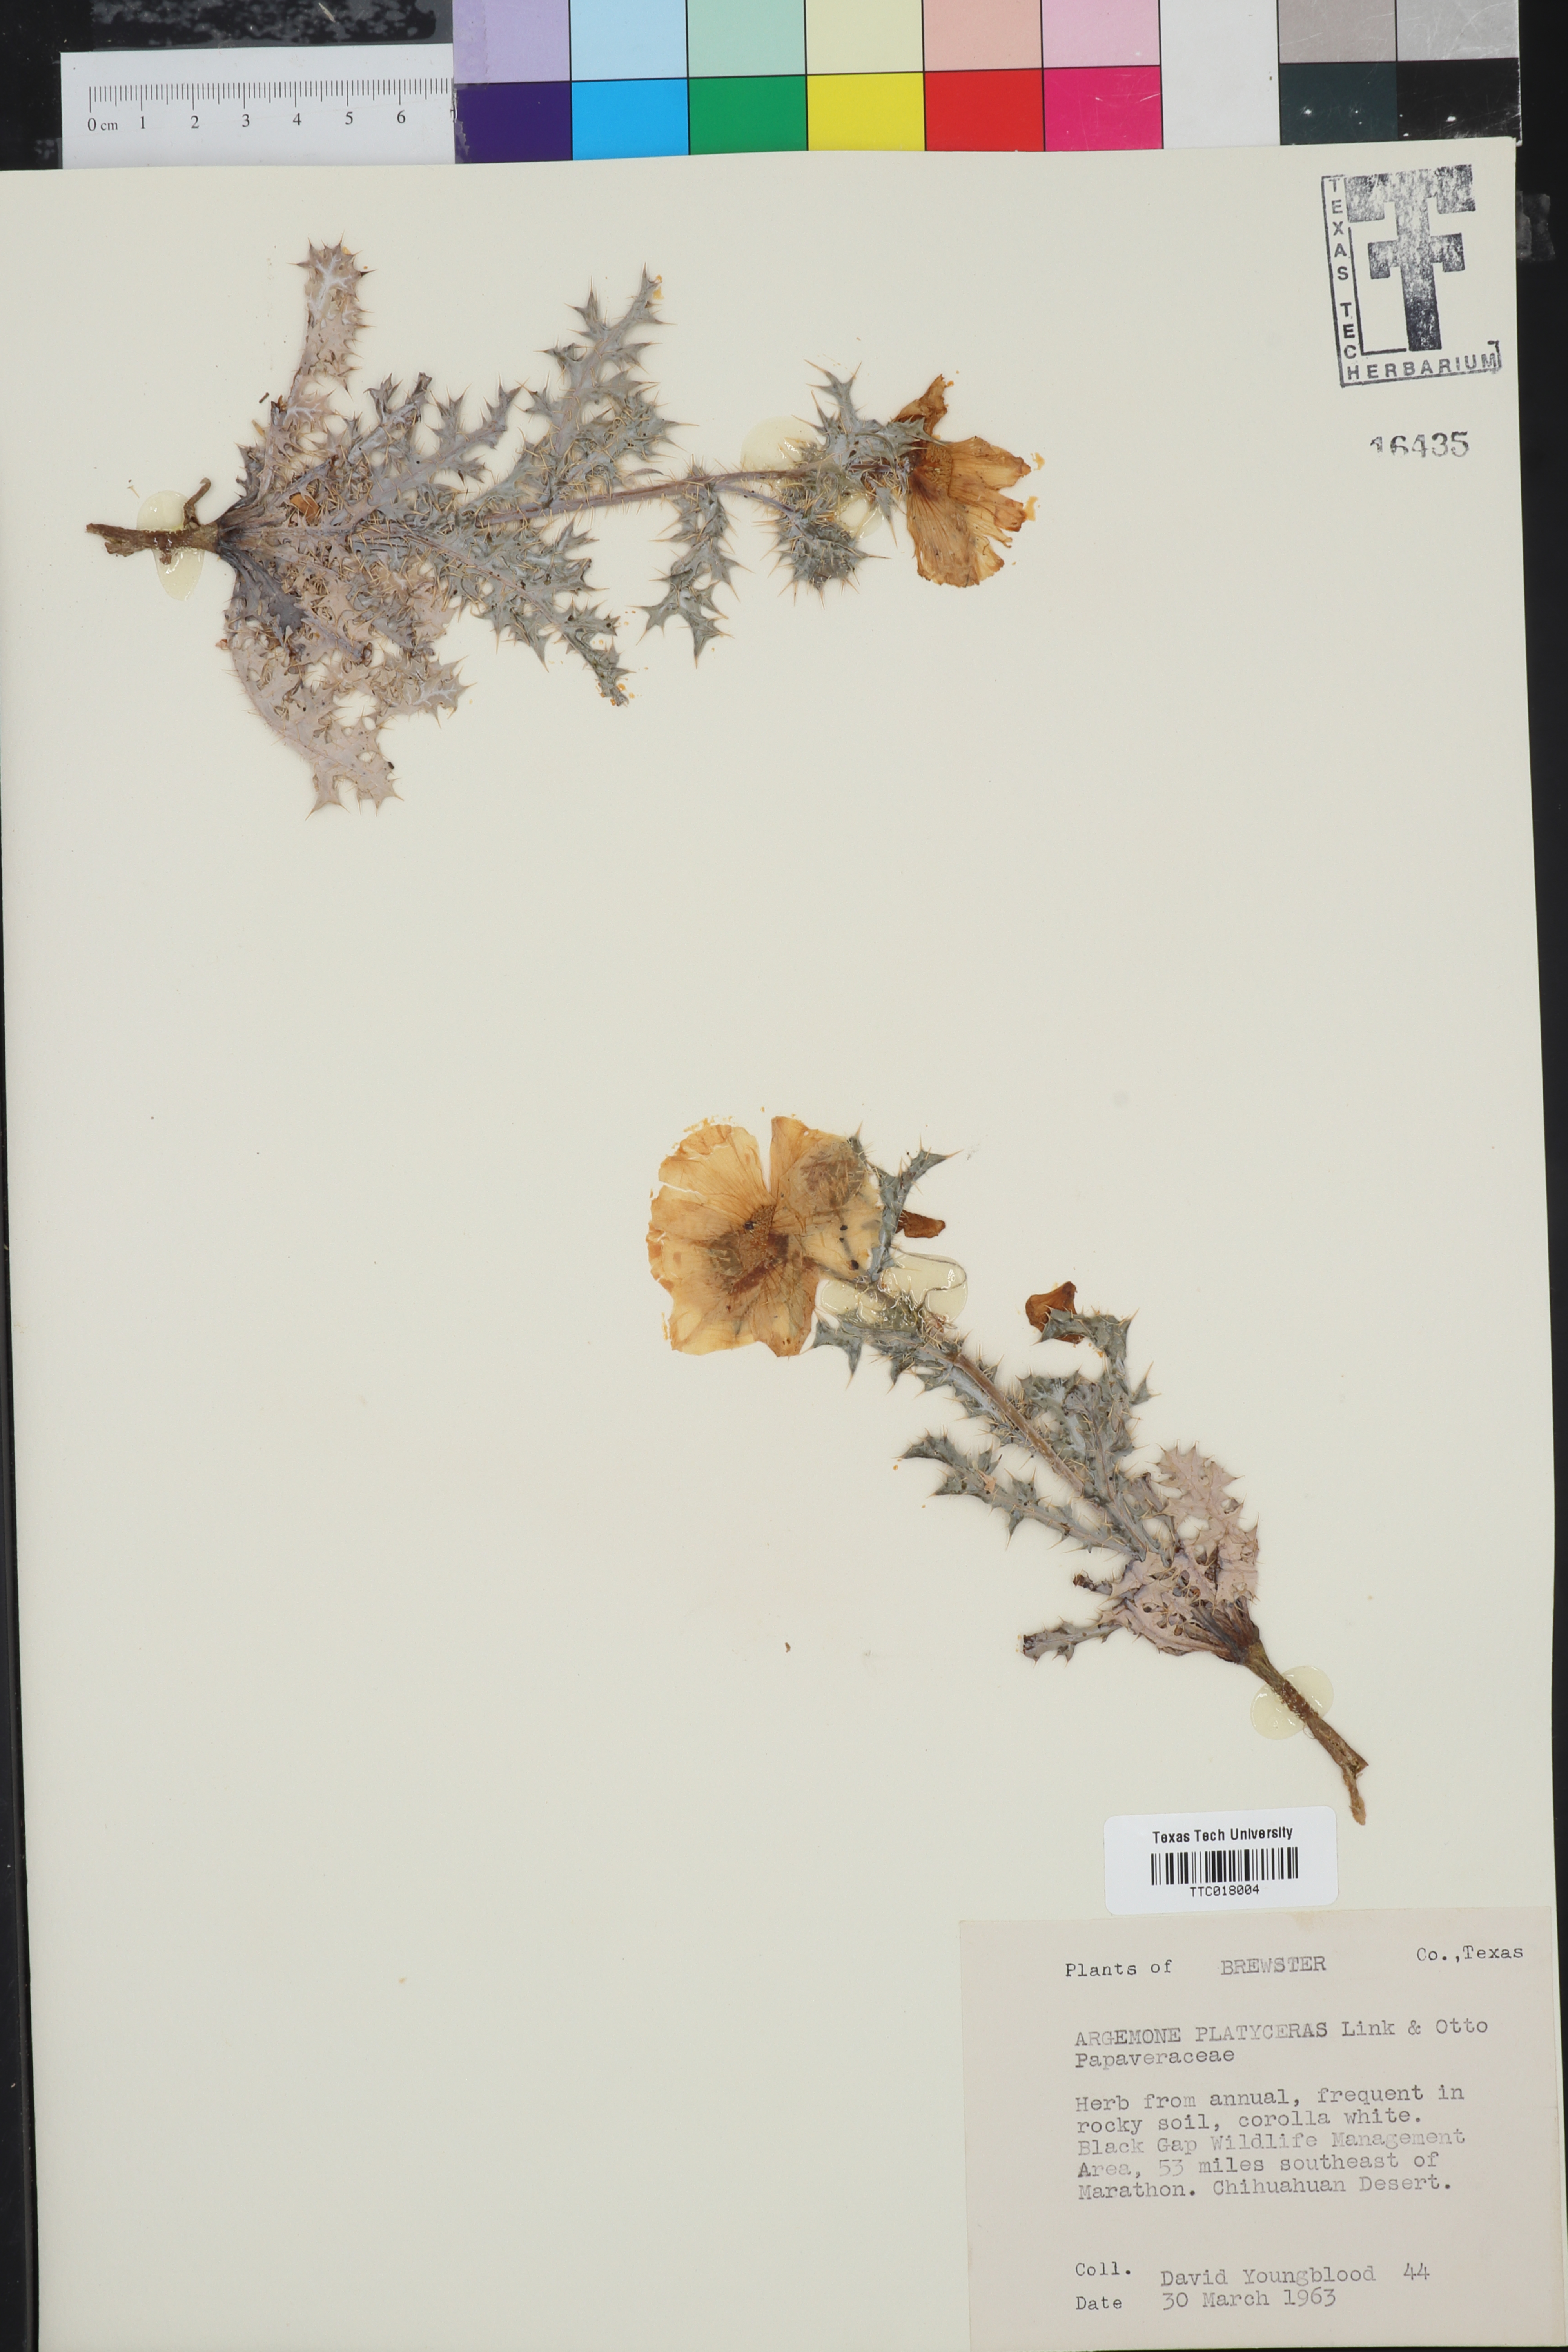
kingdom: Plantae
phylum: Tracheophyta
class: Magnoliopsida
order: Ranunculales
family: Papaveraceae
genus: Argemone
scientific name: Argemone platyceras
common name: Crested-poppy
